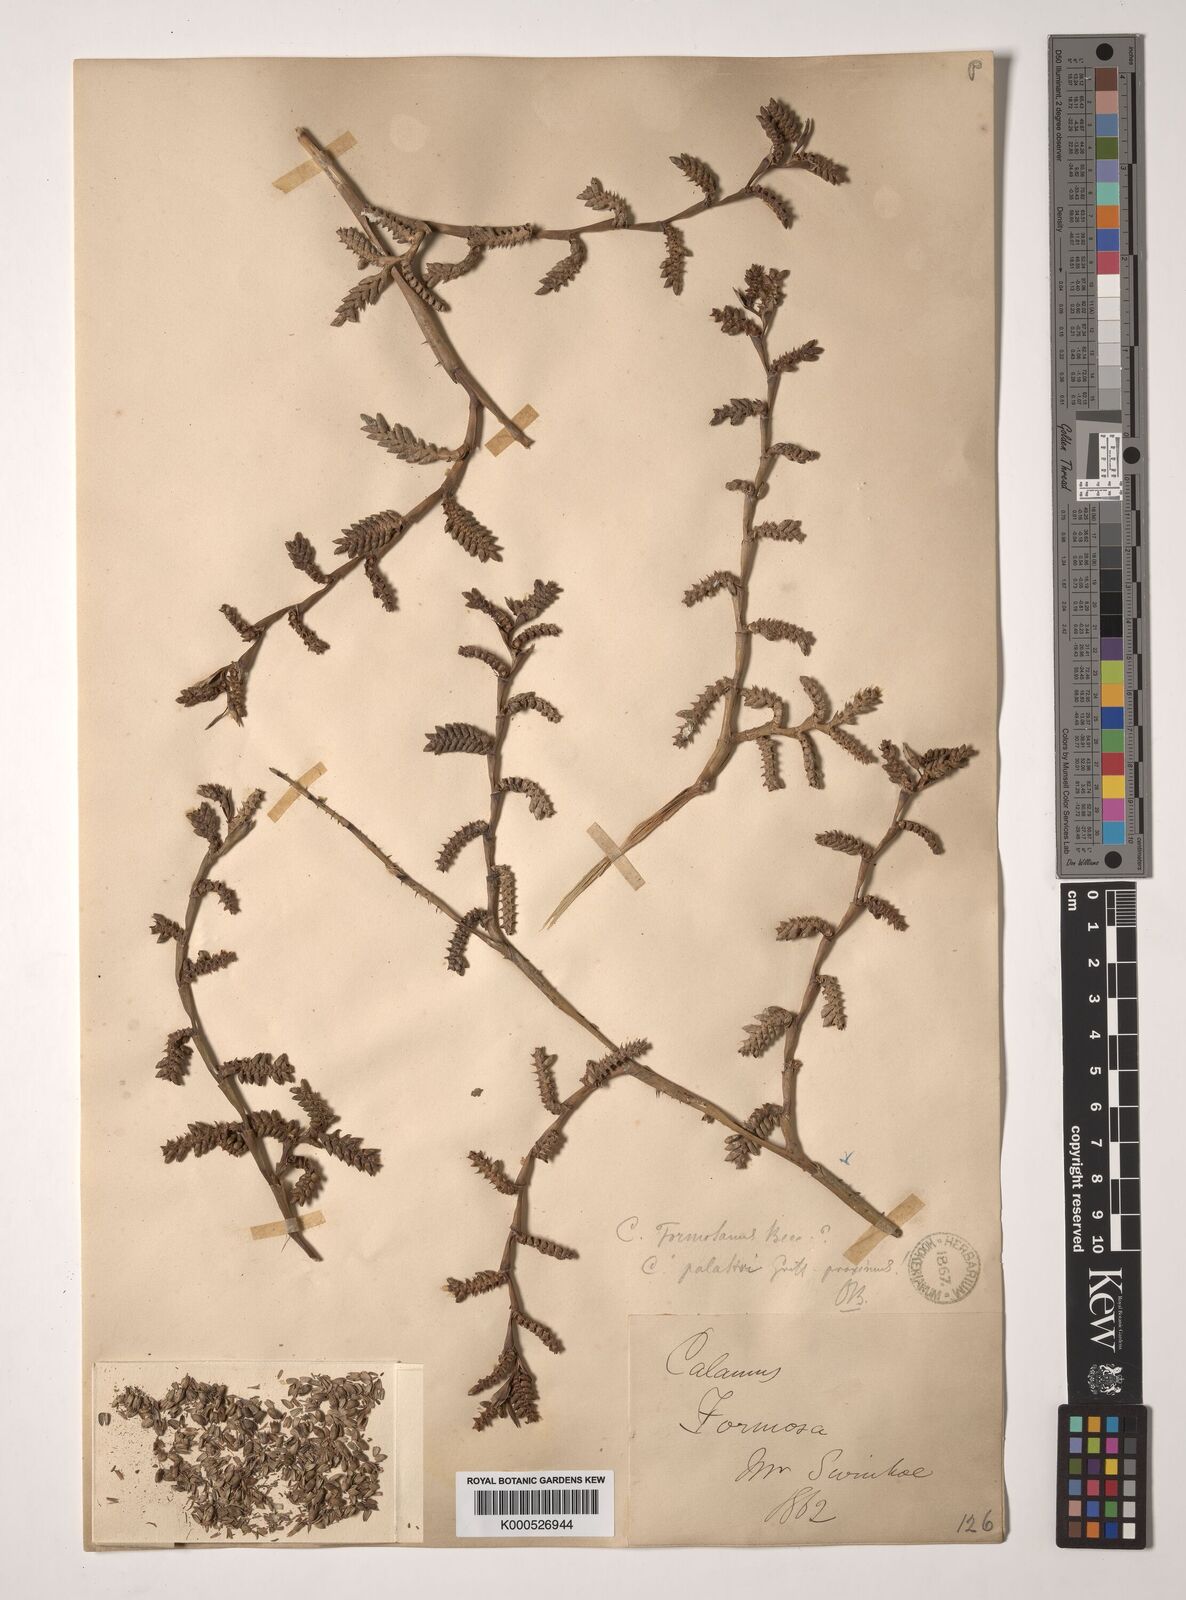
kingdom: Plantae
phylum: Tracheophyta
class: Liliopsida
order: Arecales
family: Arecaceae
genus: Calamus
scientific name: Calamus latifolius
